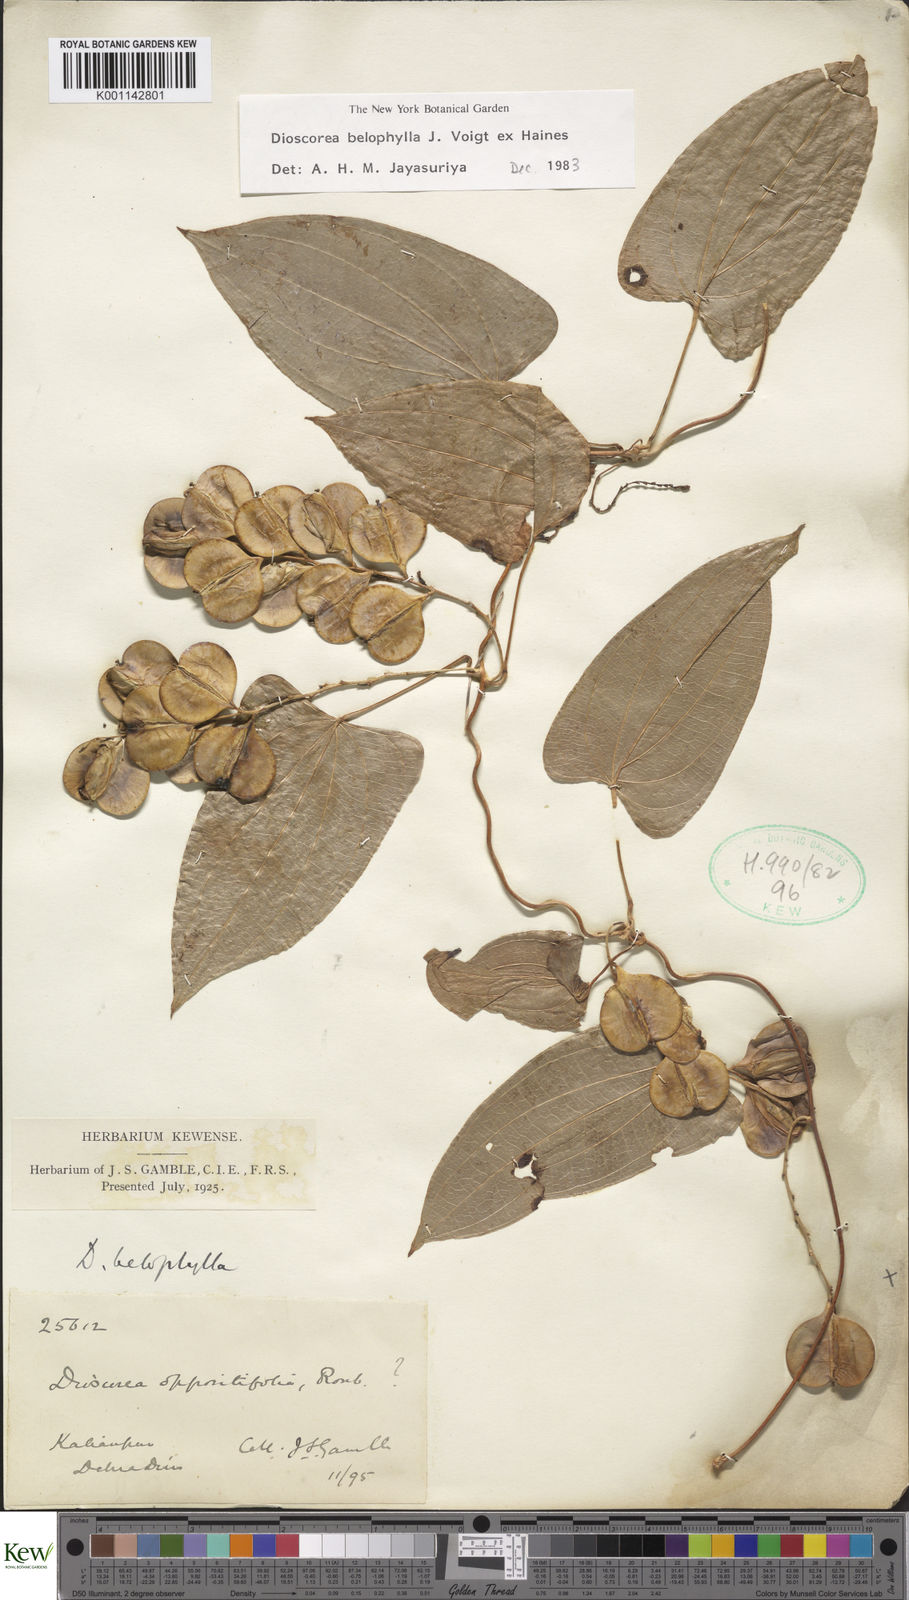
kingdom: Plantae
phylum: Tracheophyta
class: Liliopsida
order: Dioscoreales
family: Dioscoreaceae
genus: Dioscorea
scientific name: Dioscorea belophylla
